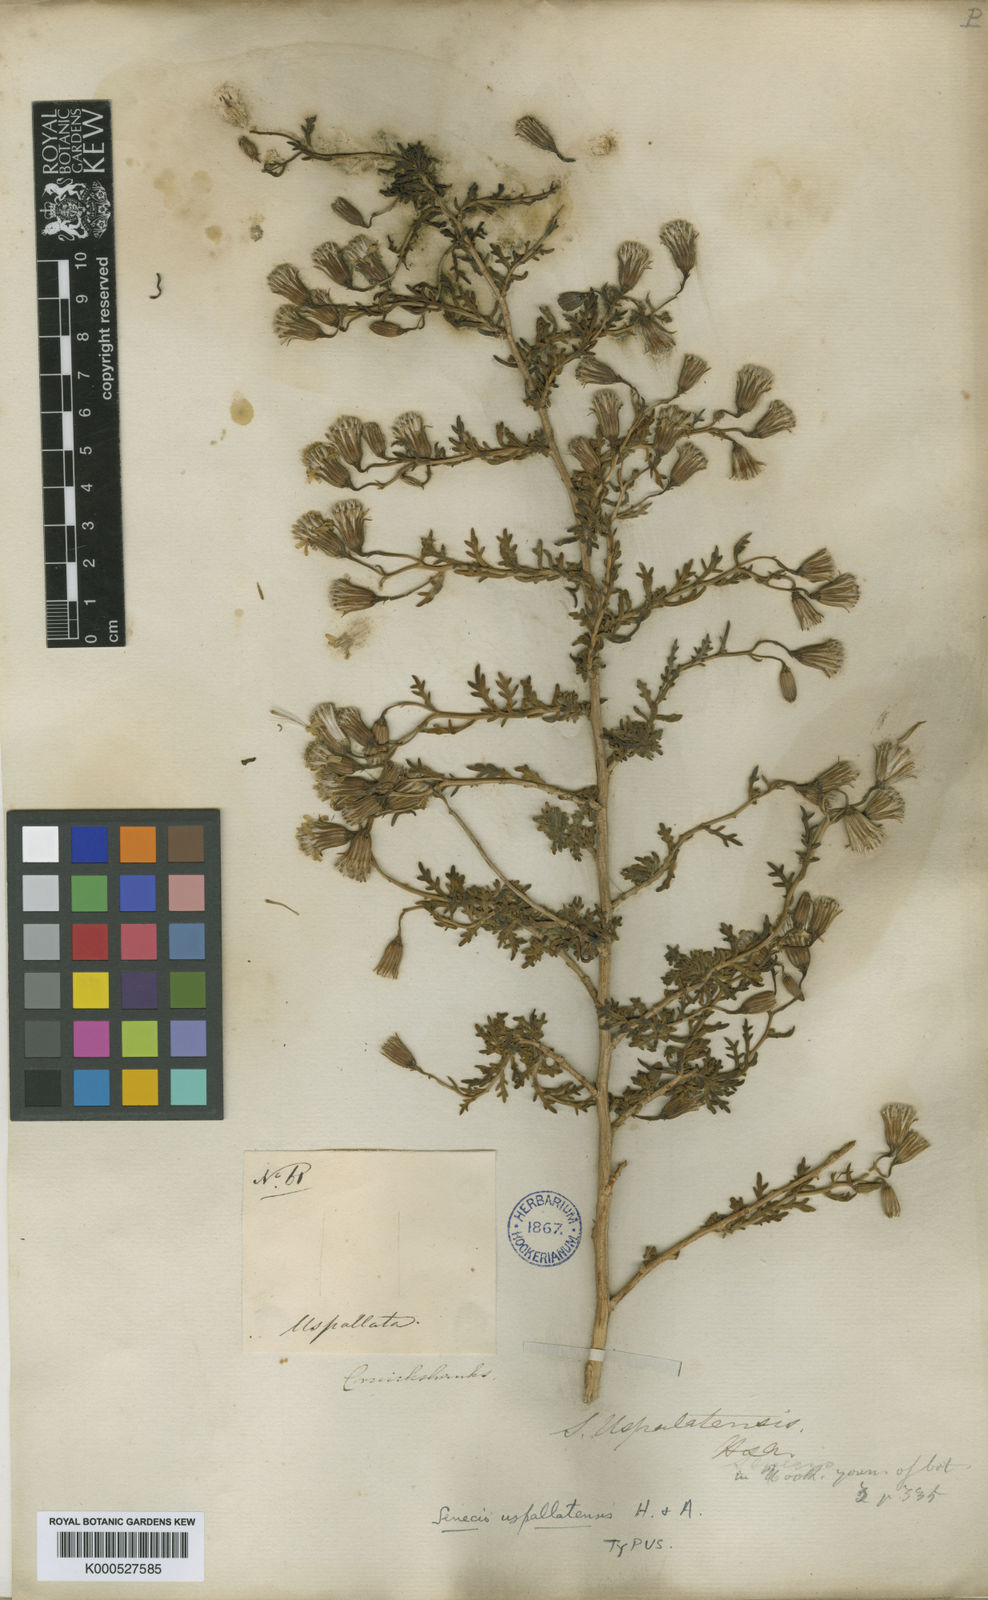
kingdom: Plantae
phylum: Tracheophyta
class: Magnoliopsida
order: Asterales
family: Asteraceae
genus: Senecio
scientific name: Senecio uspallatensis
